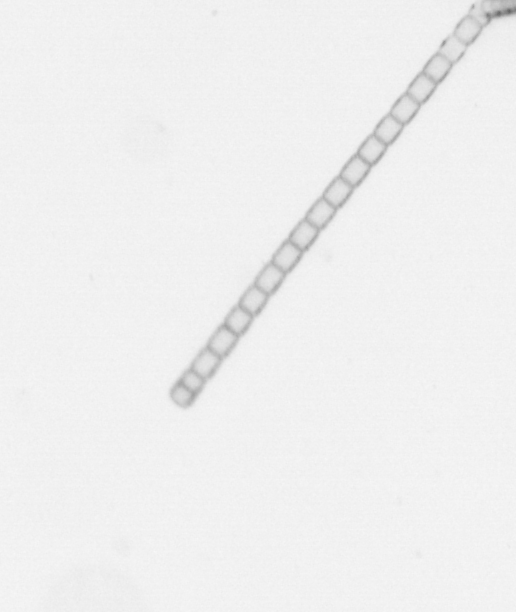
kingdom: Chromista
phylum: Ochrophyta
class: Bacillariophyceae
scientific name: Bacillariophyceae
